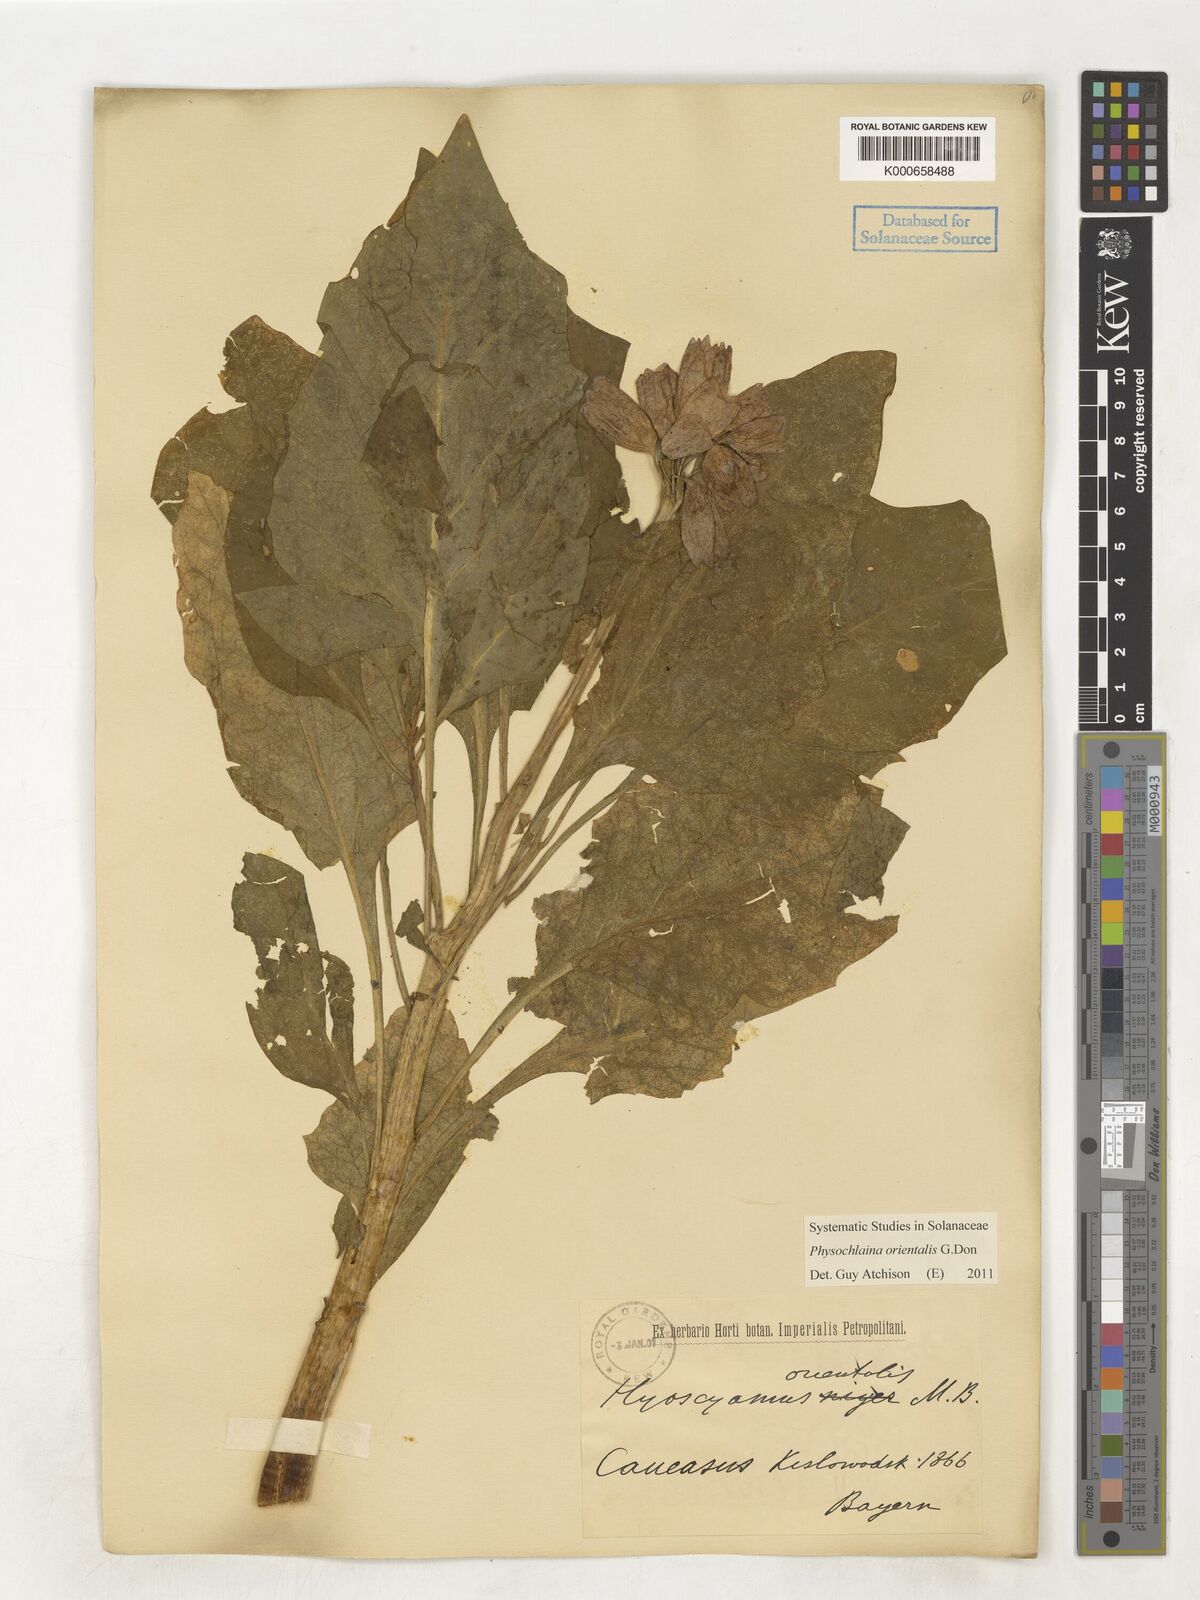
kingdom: Plantae
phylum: Tracheophyta
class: Magnoliopsida
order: Solanales
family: Solanaceae
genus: Physochlaina
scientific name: Physochlaina orientalis
